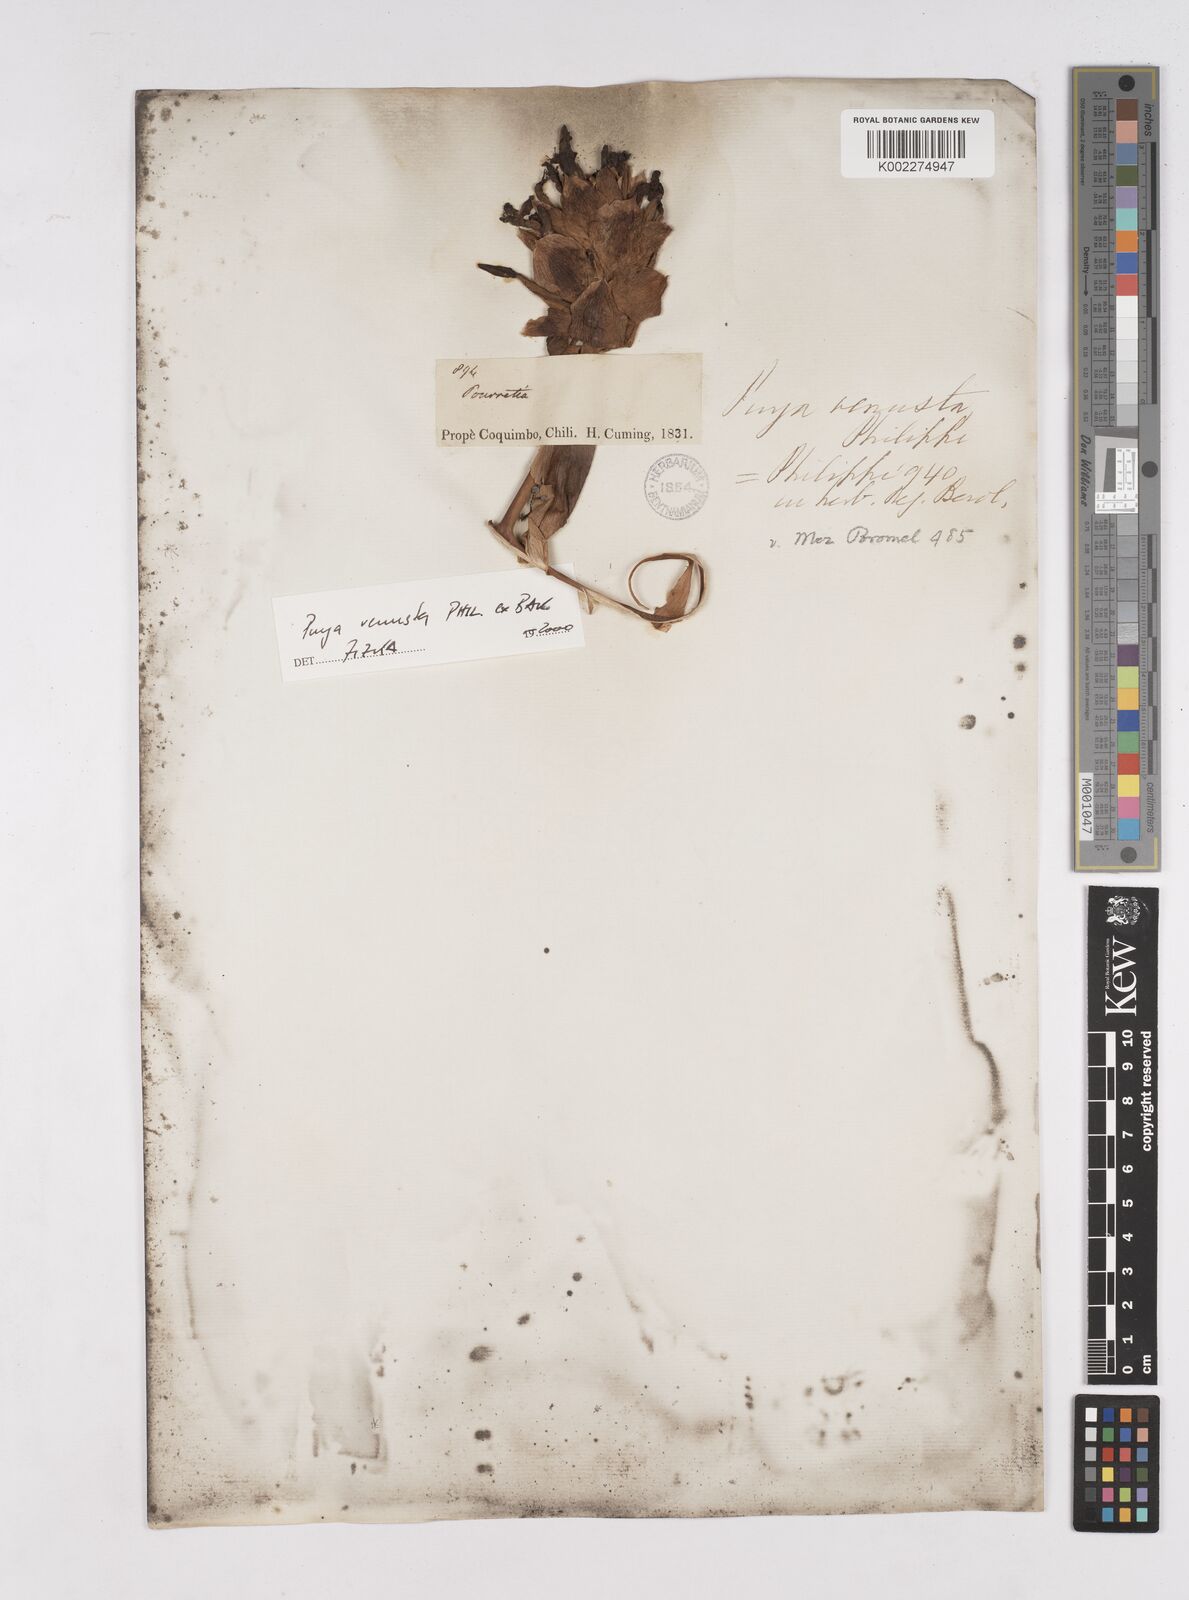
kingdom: Plantae
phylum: Tracheophyta
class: Liliopsida
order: Poales
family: Bromeliaceae
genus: Puya
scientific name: Puya venusta
